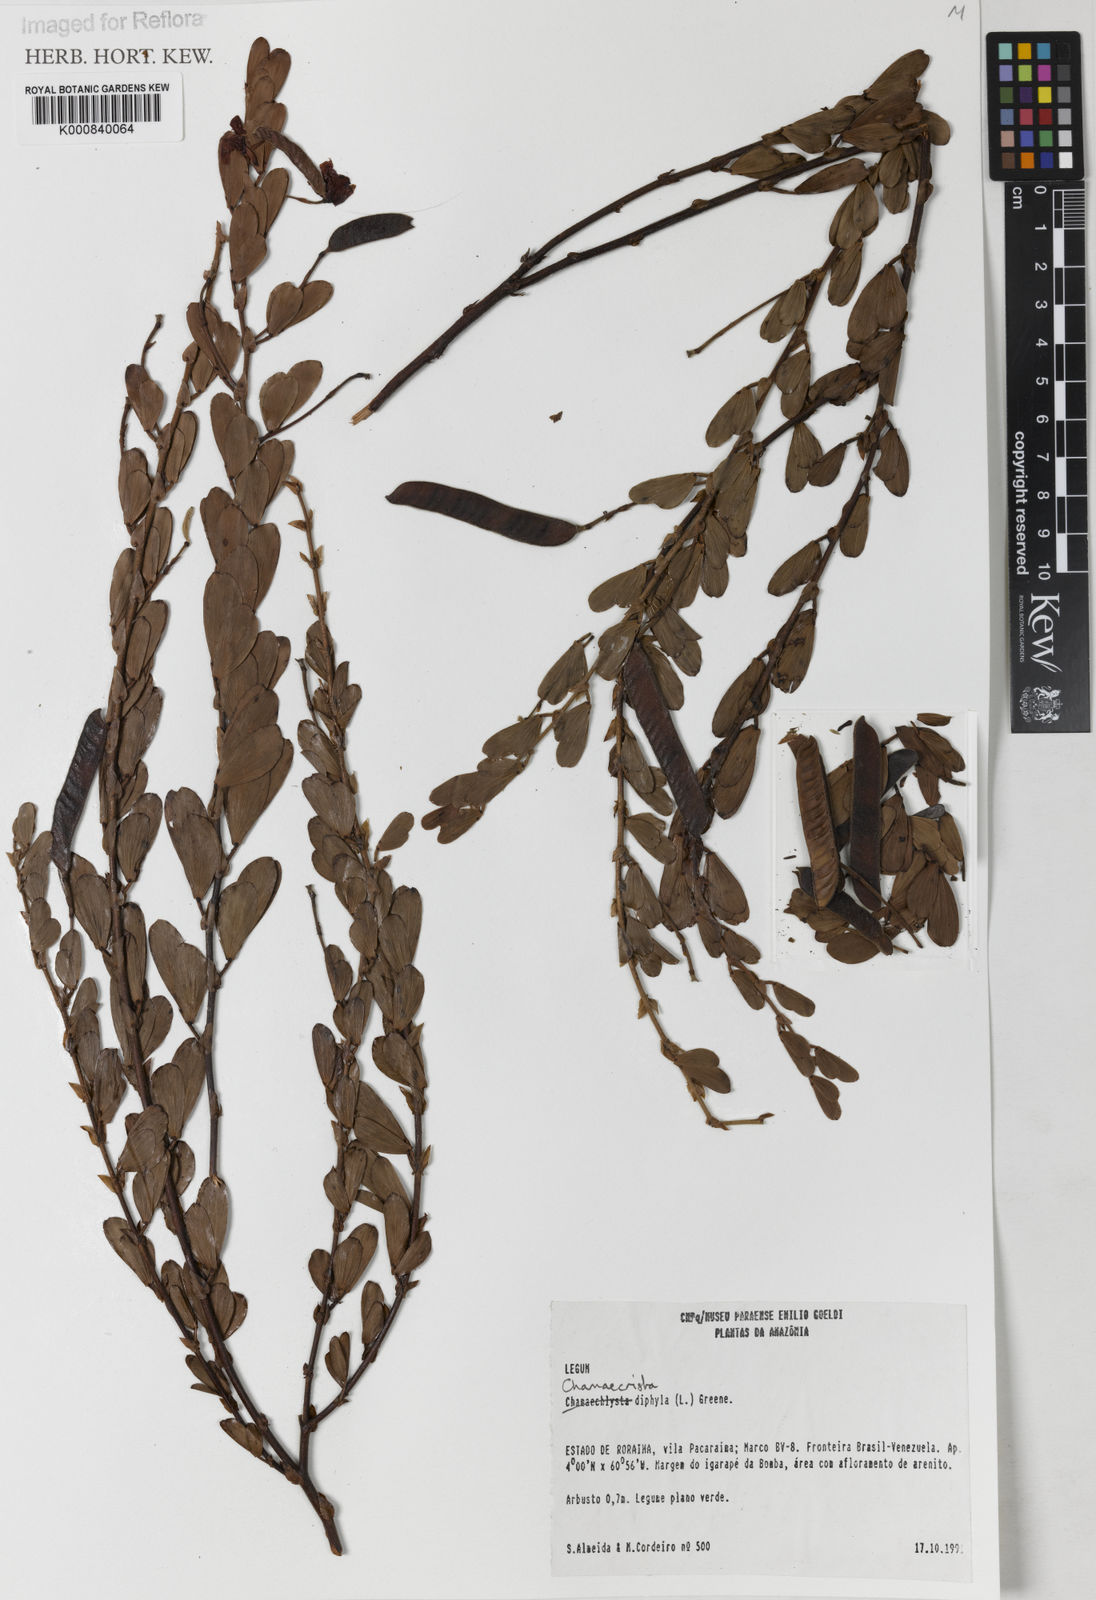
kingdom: Plantae
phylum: Tracheophyta
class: Magnoliopsida
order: Fabales
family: Fabaceae
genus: Chamaecrista
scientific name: Chamaecrista desvauxii
